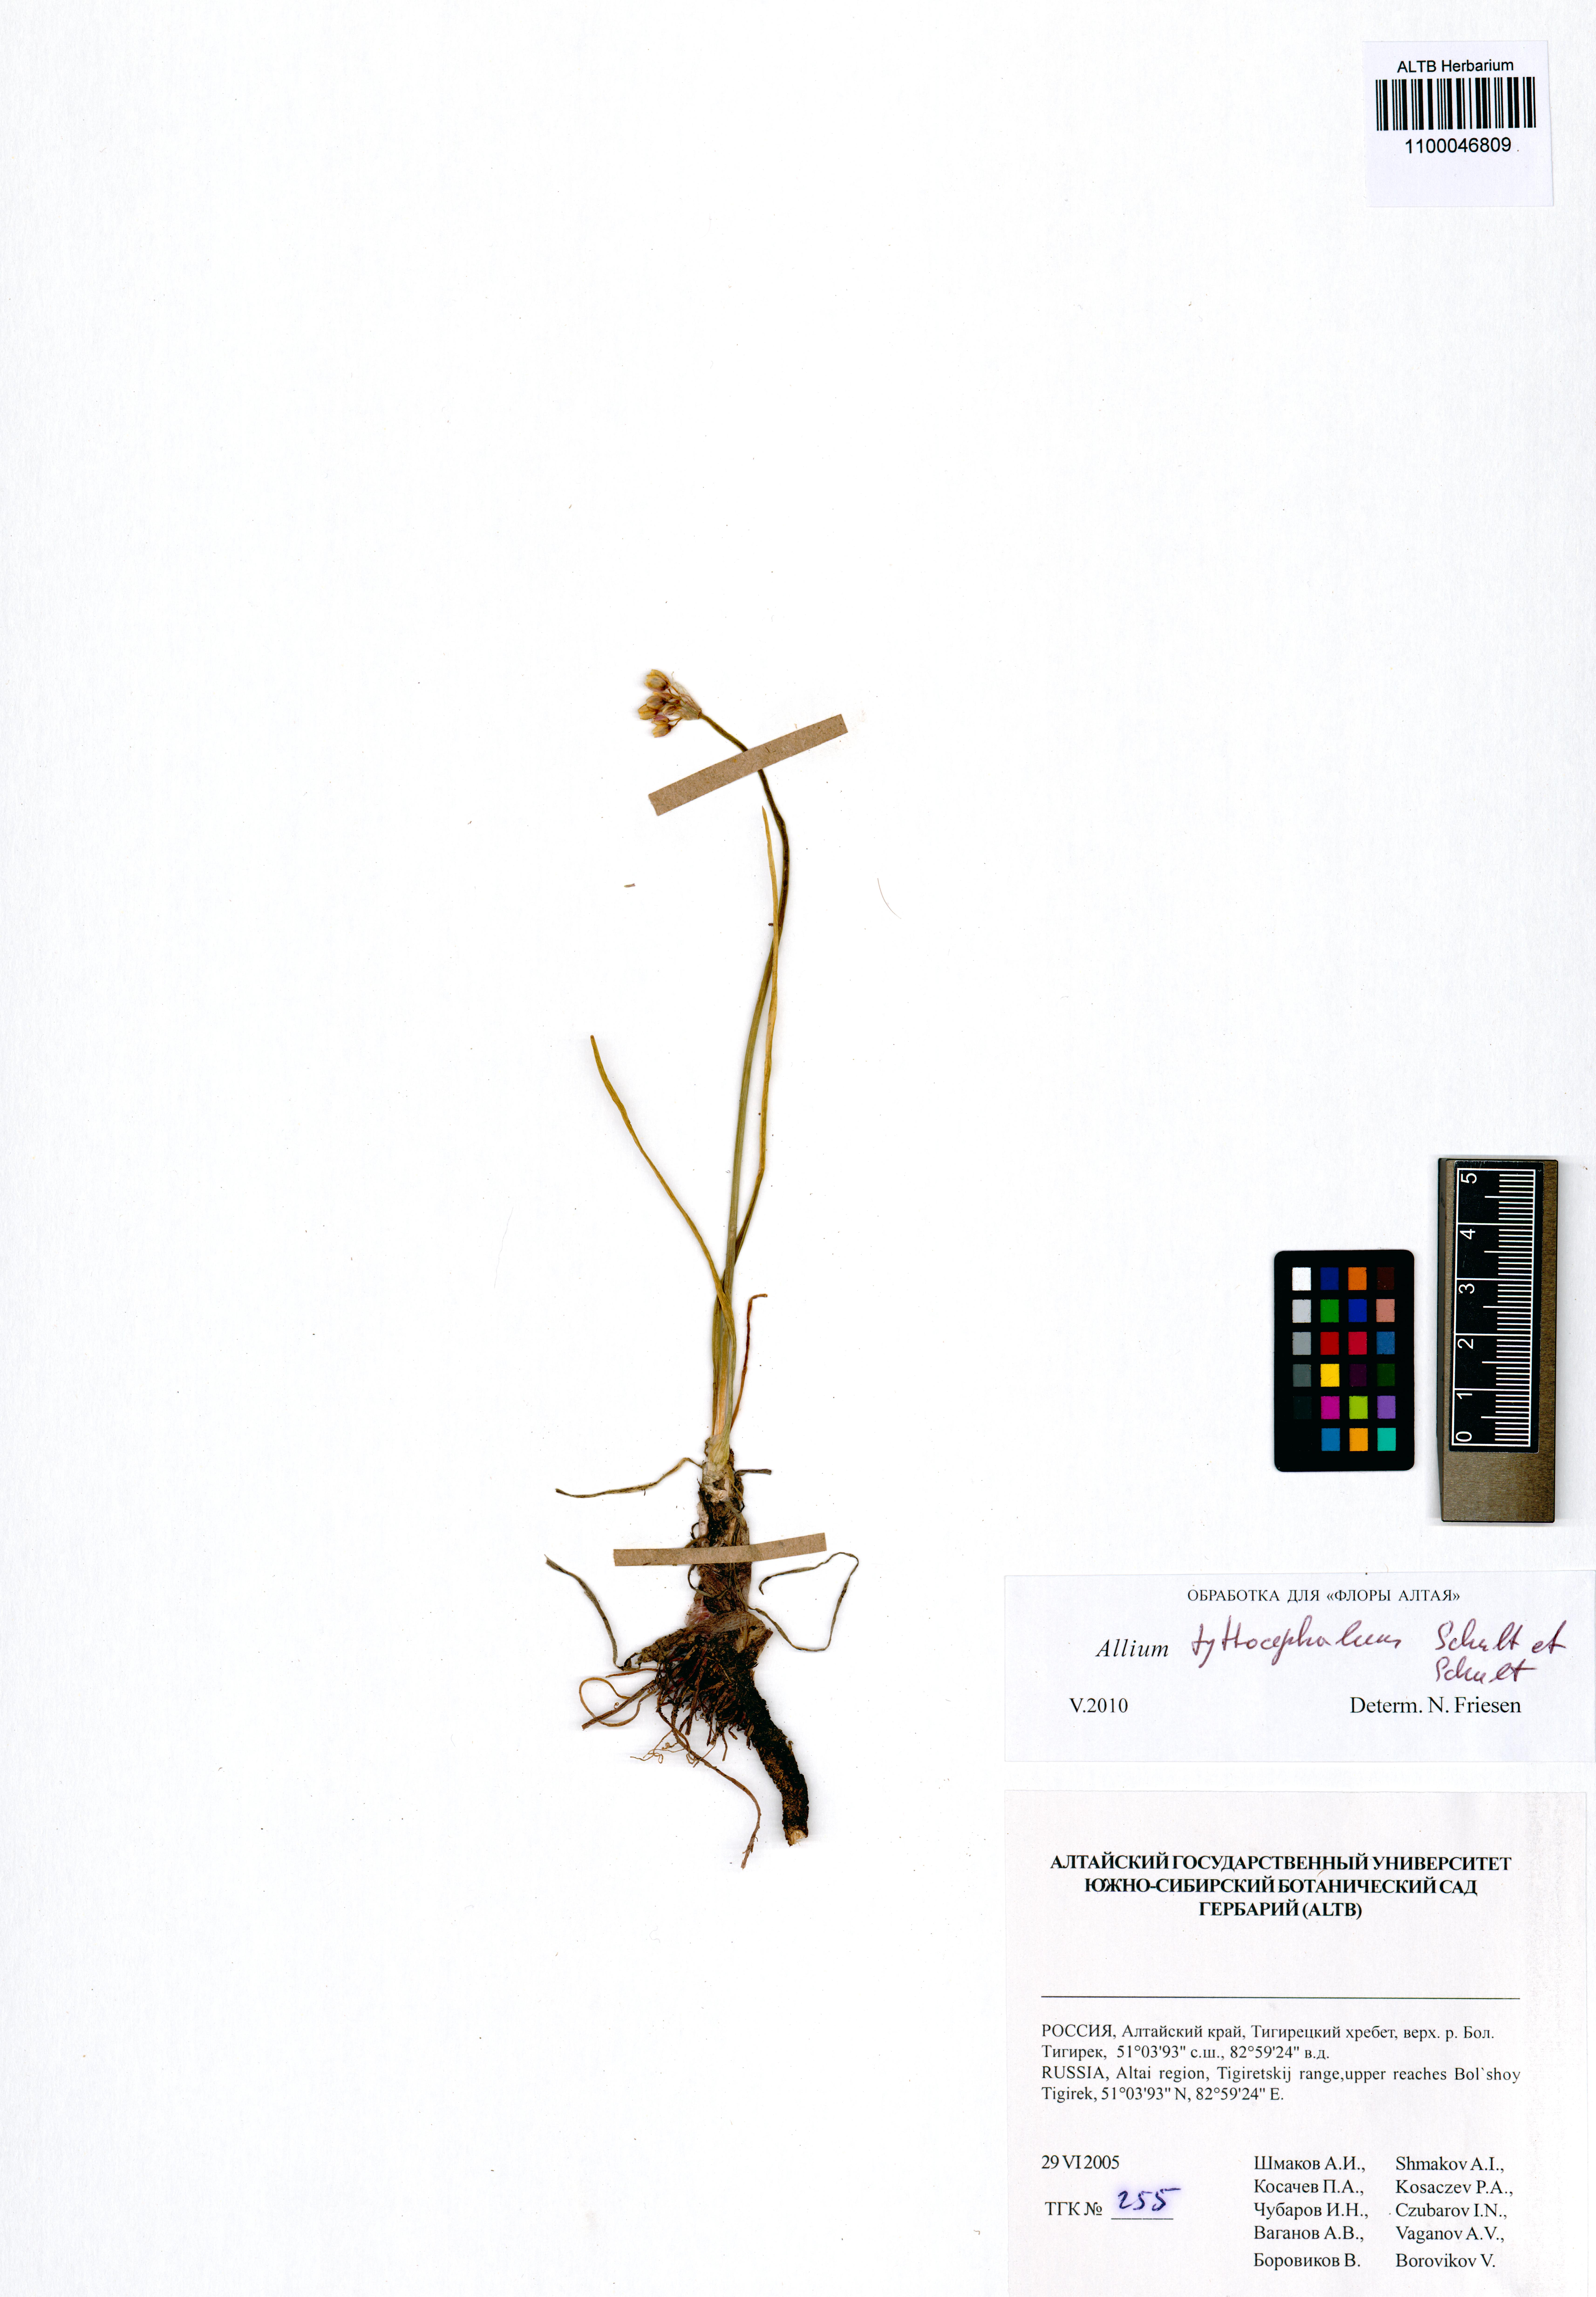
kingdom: Plantae
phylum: Tracheophyta
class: Liliopsida
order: Asparagales
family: Amaryllidaceae
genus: Allium
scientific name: Allium tytthocephalum
